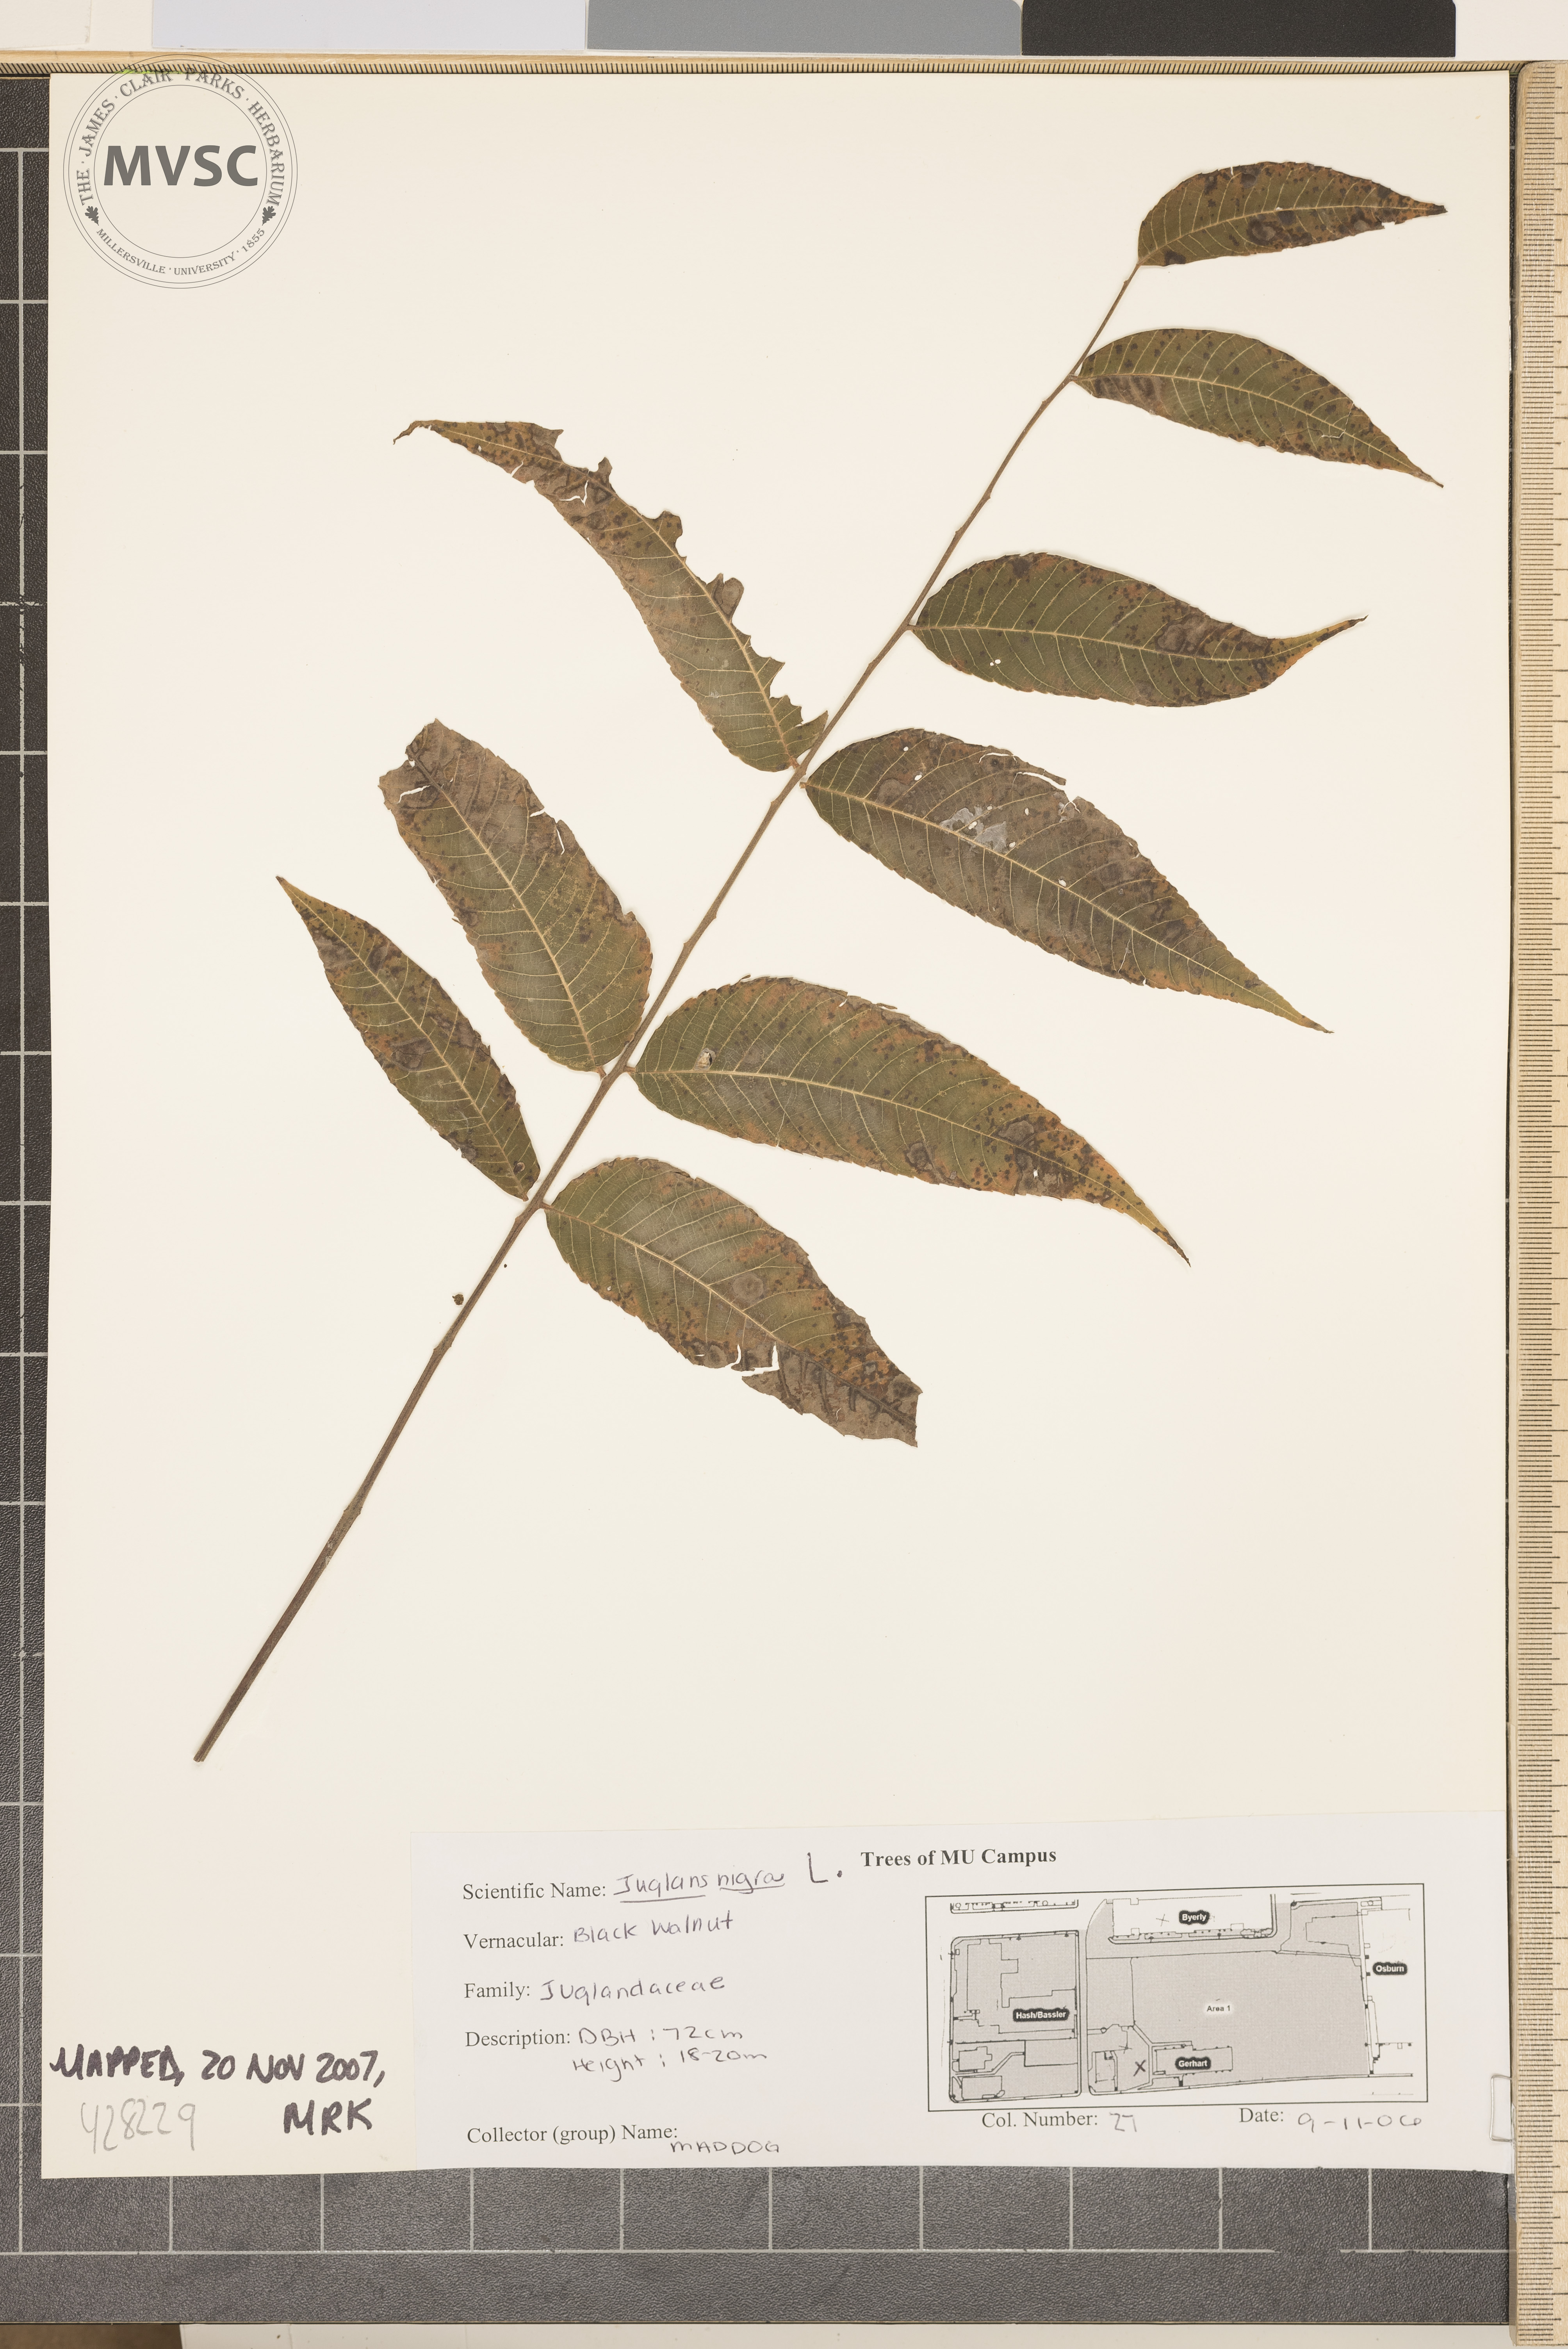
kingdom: Plantae
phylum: Tracheophyta
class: Magnoliopsida
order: Fagales
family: Juglandaceae
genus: Juglans
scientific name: Juglans nigra
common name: Black walnut
